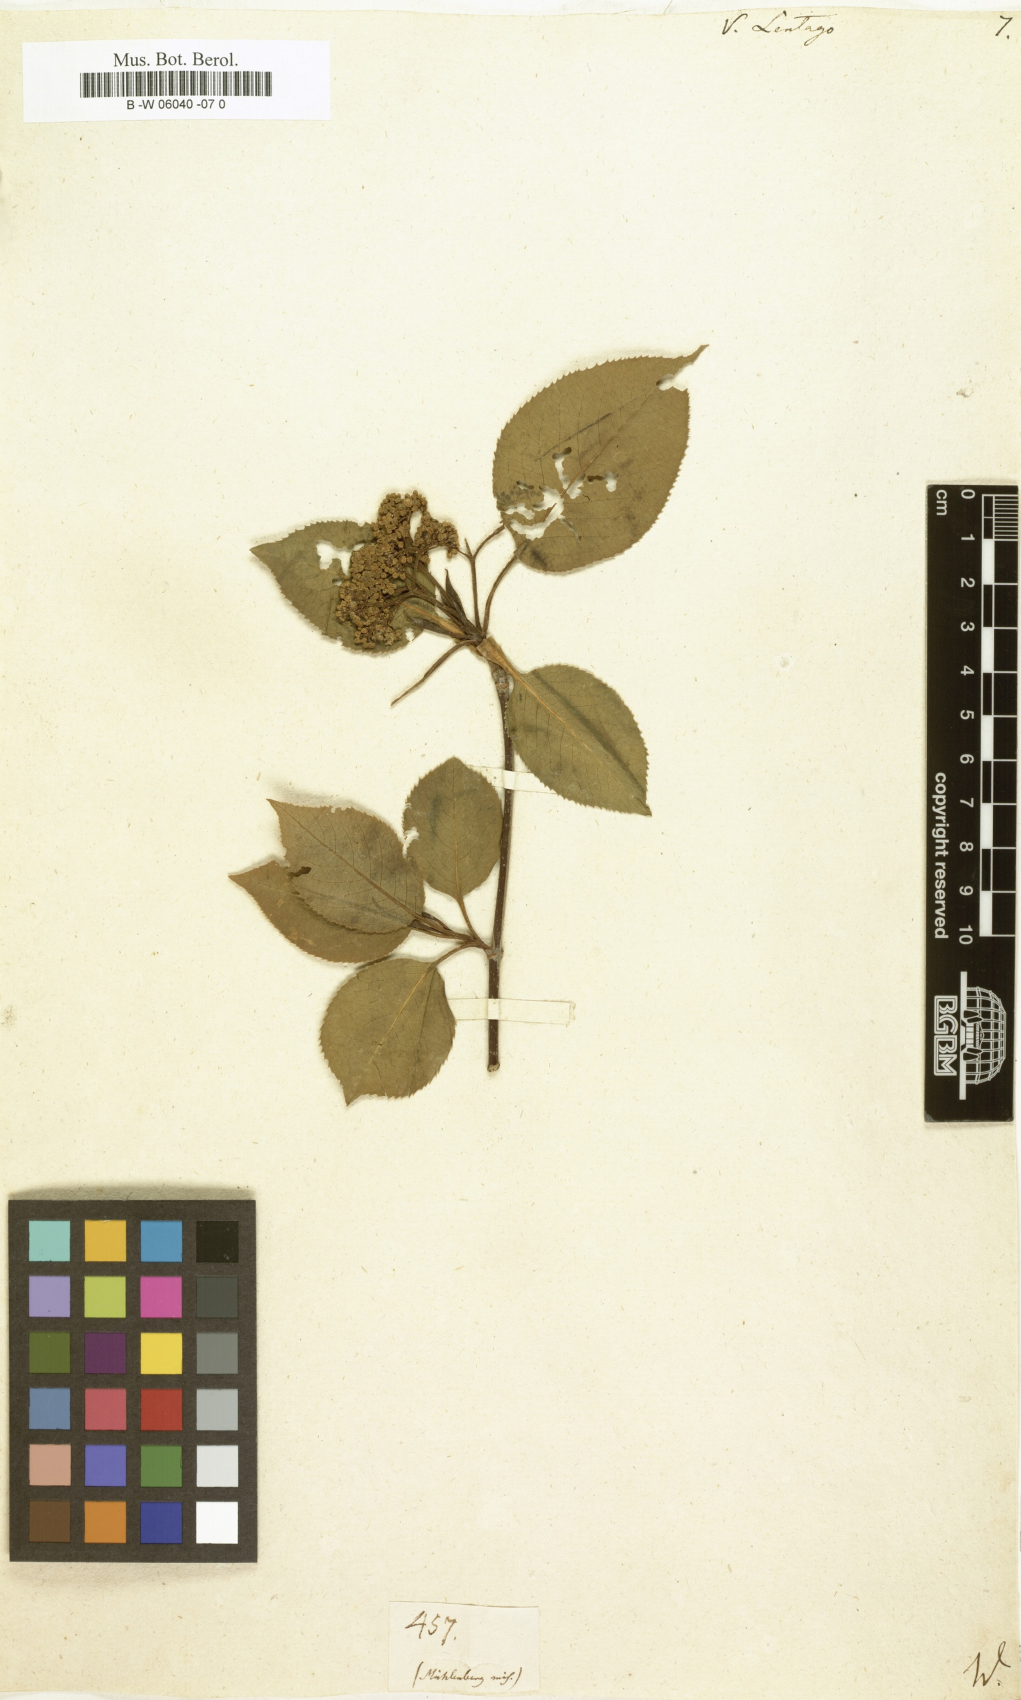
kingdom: Plantae
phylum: Tracheophyta
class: Magnoliopsida
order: Dipsacales
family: Viburnaceae
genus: Viburnum
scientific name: Viburnum lentago
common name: Black haw
